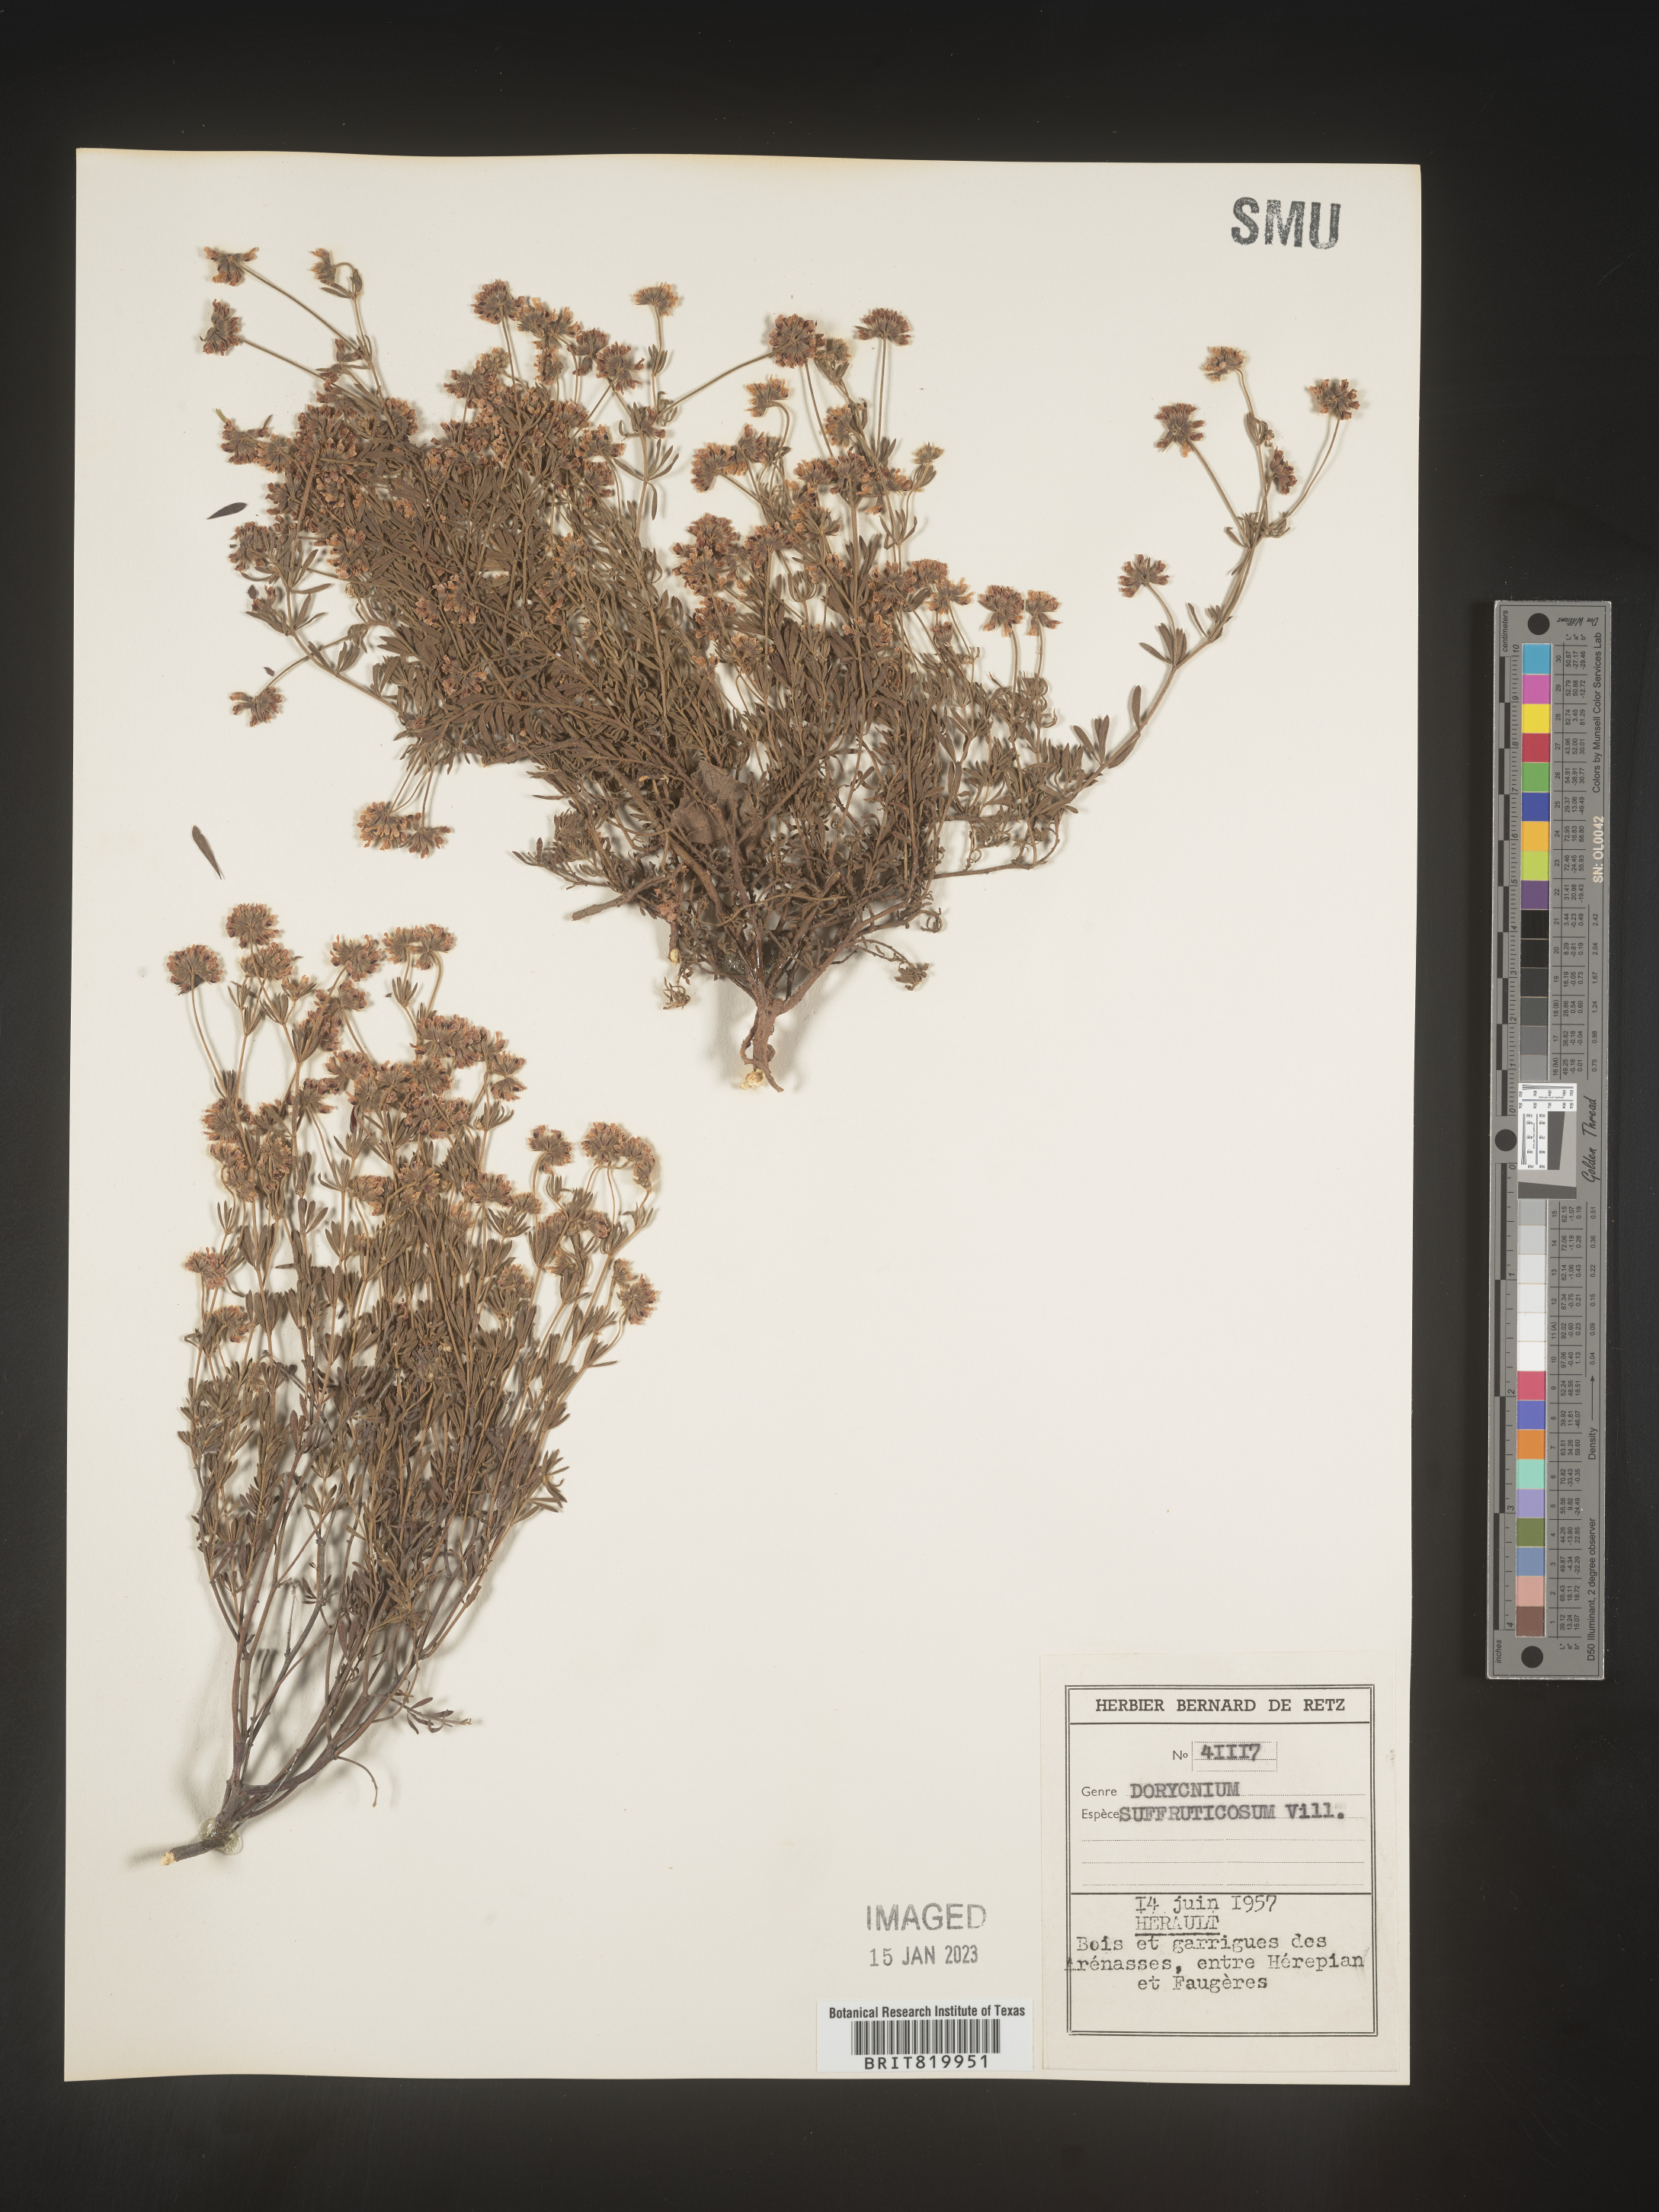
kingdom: Plantae
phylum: Tracheophyta
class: Magnoliopsida
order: Fabales
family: Fabaceae
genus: Lotus
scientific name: Lotus
